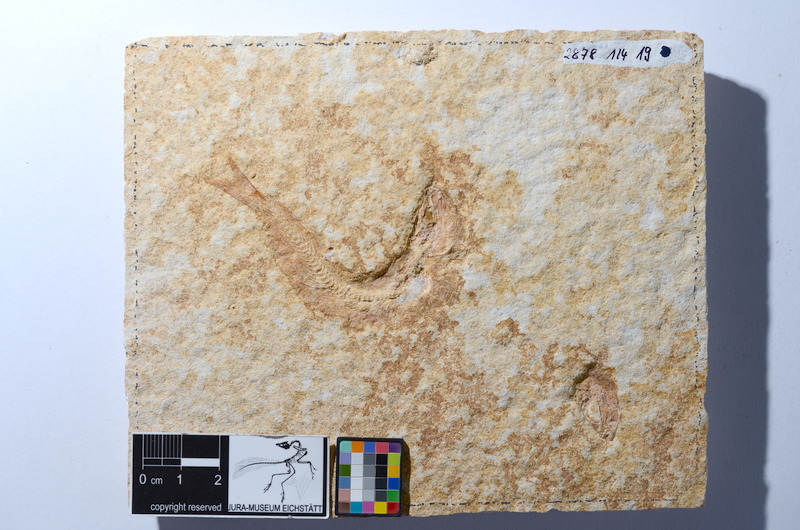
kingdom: Animalia
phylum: Chordata
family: Ascalaboidae
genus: Tharsis
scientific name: Tharsis dubius
